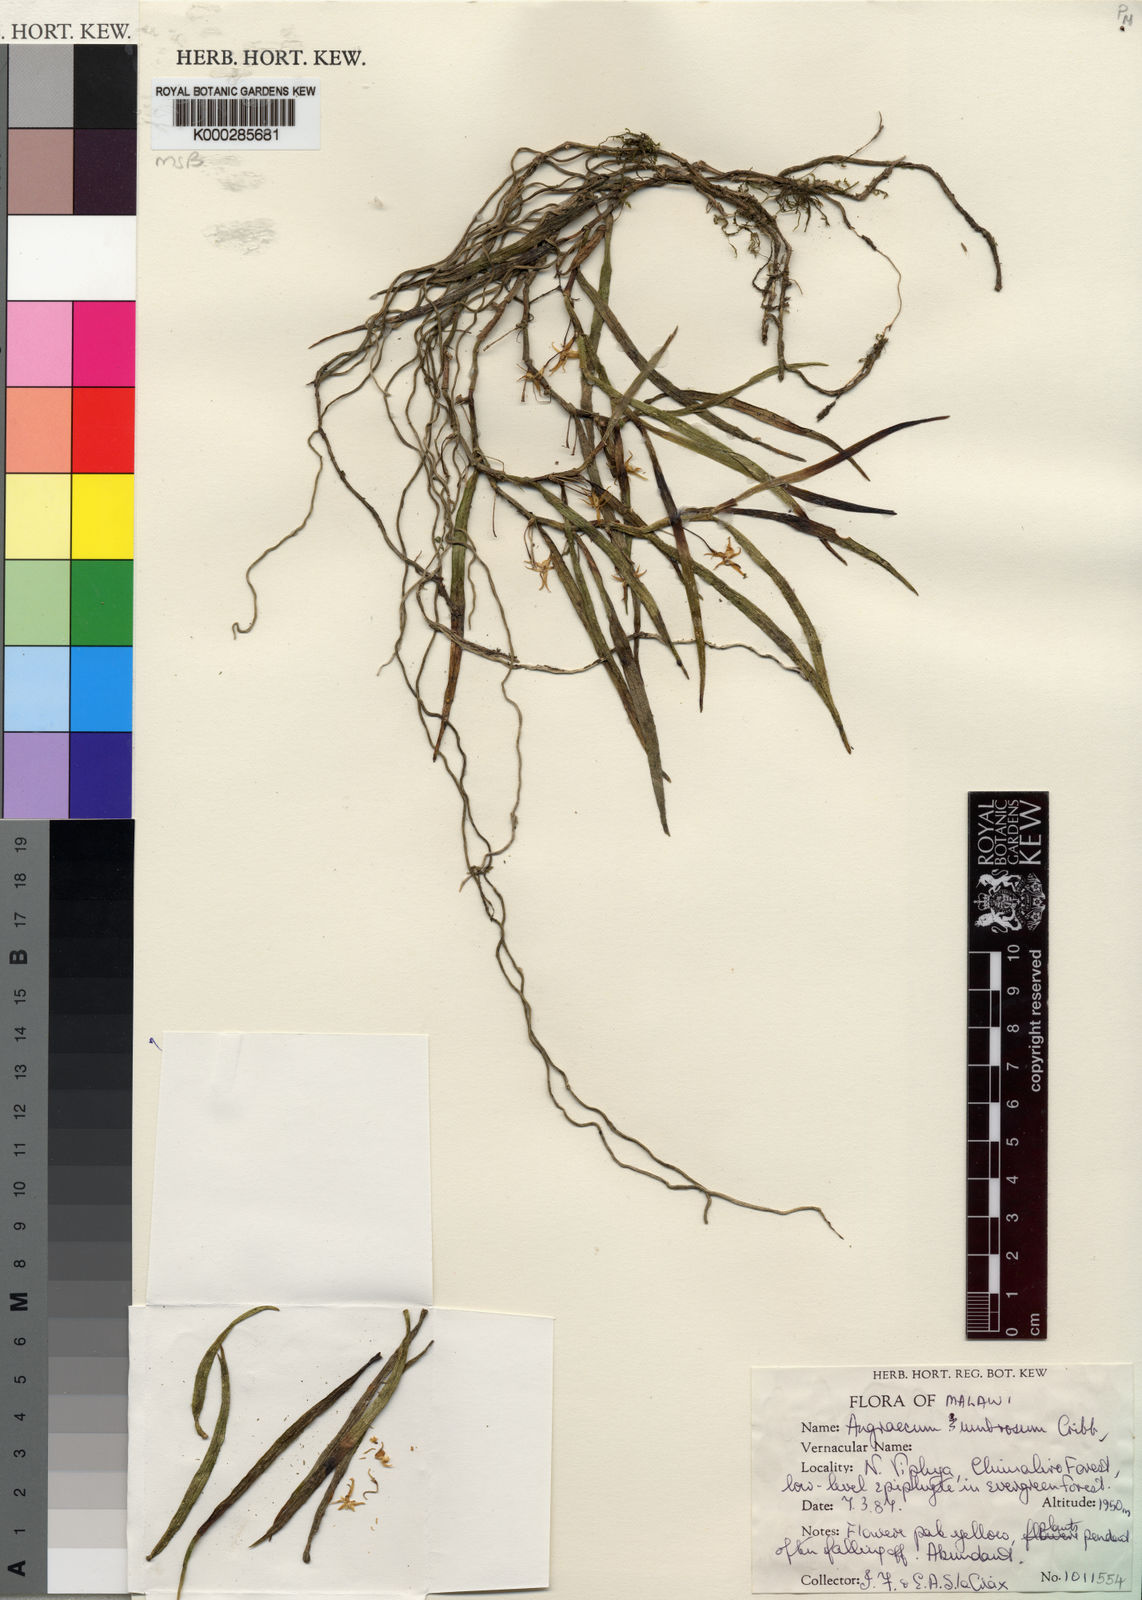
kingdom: Plantae
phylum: Tracheophyta
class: Liliopsida
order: Asparagales
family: Orchidaceae
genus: Angraecum
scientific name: Angraecum umbrosum
